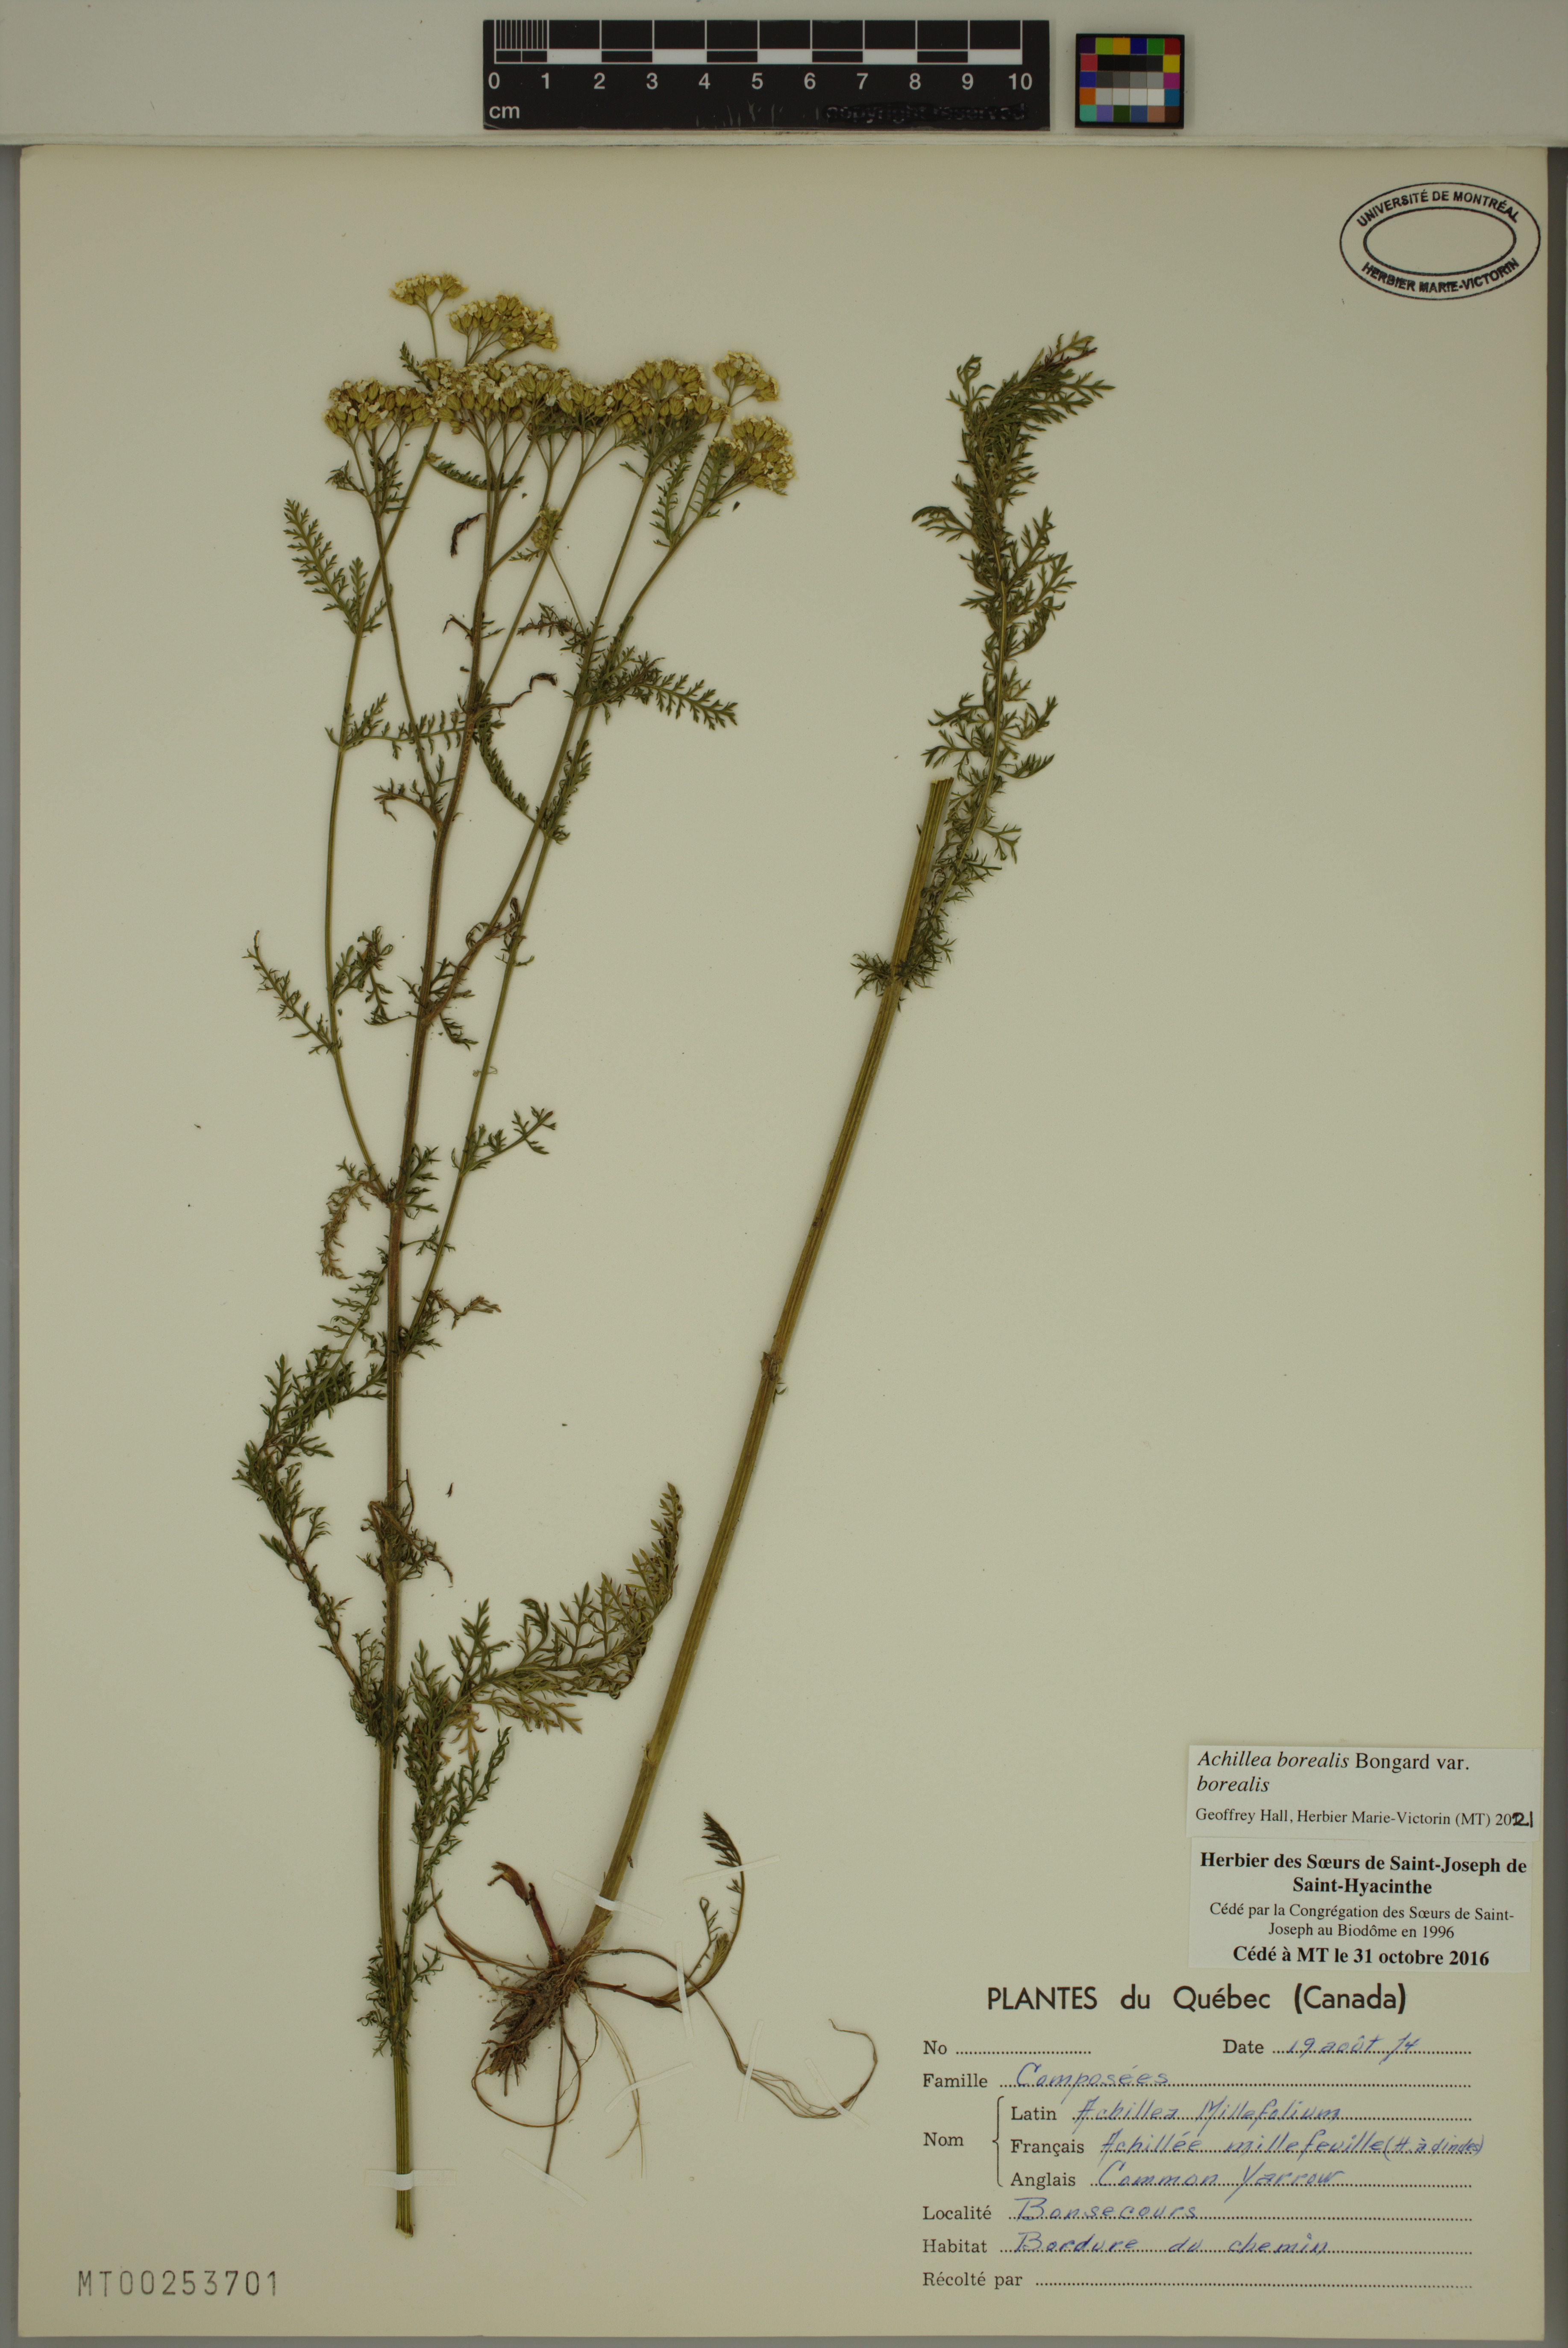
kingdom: Plantae
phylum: Tracheophyta
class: Magnoliopsida
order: Asterales
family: Asteraceae
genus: Achillea
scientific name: Achillea millefolium
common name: Yarrow
